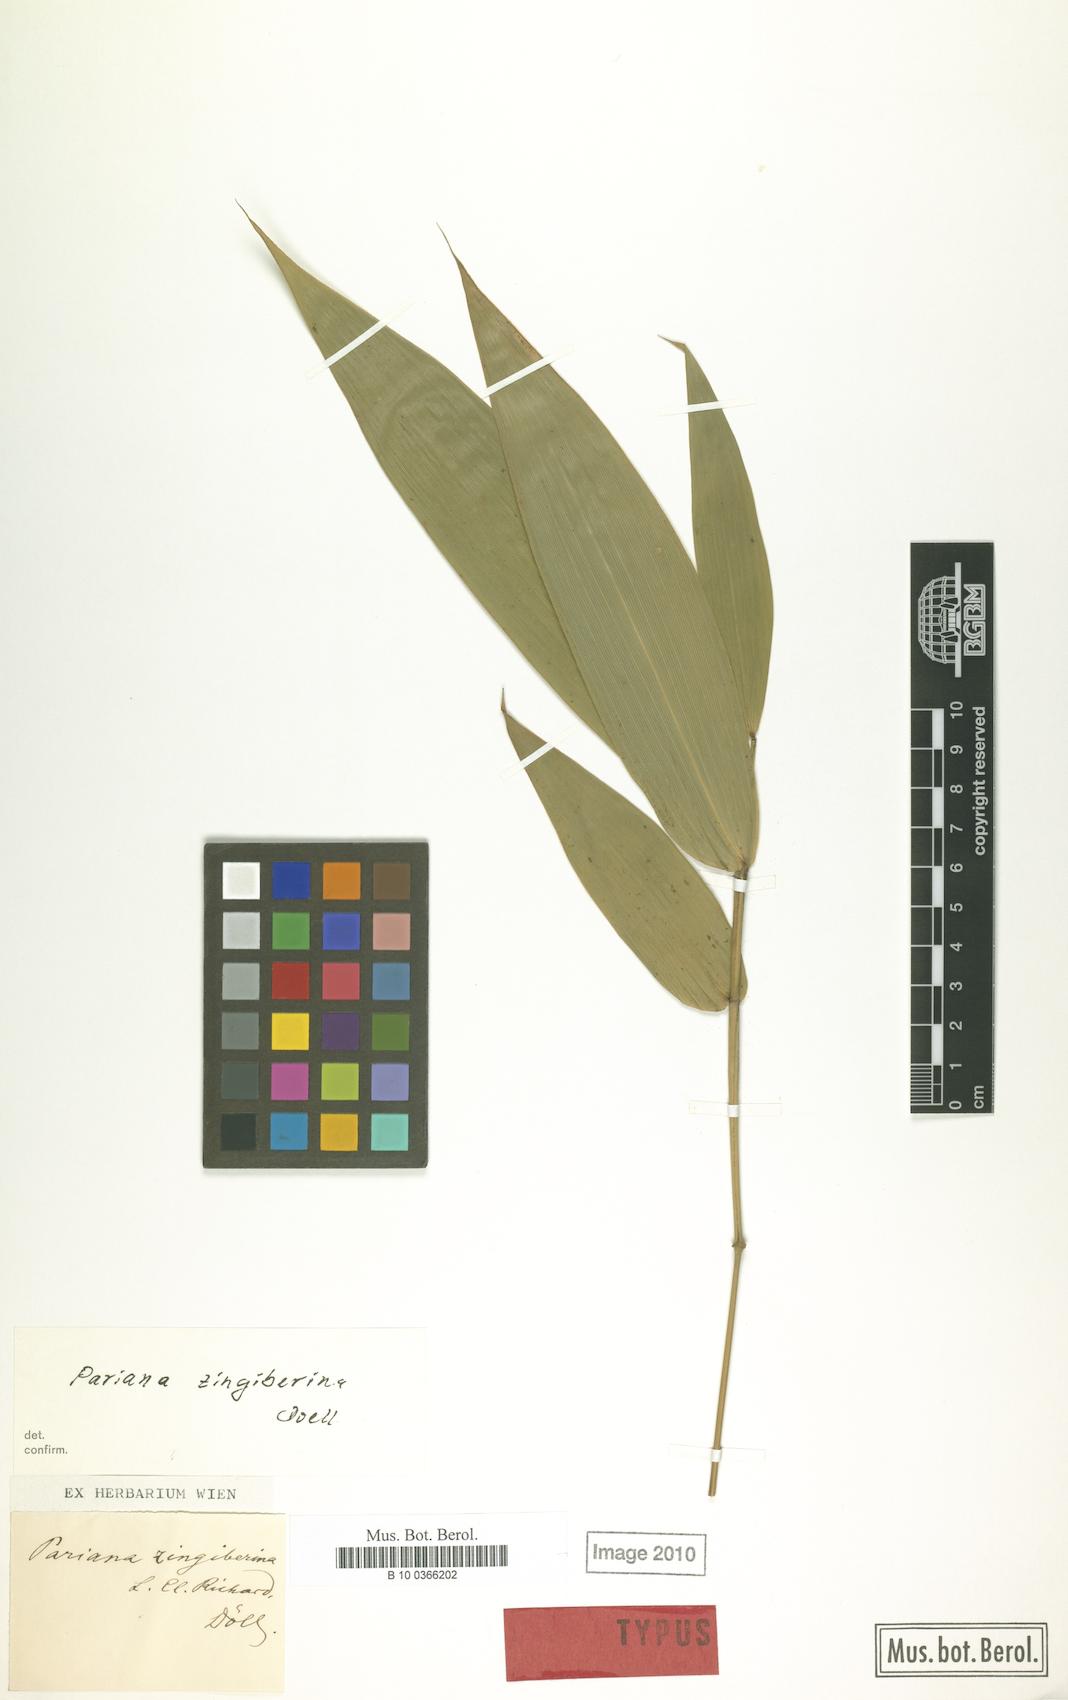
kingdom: Plantae
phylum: Tracheophyta
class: Liliopsida
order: Poales
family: Poaceae
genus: Pariana
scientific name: Pariana radiciflora
